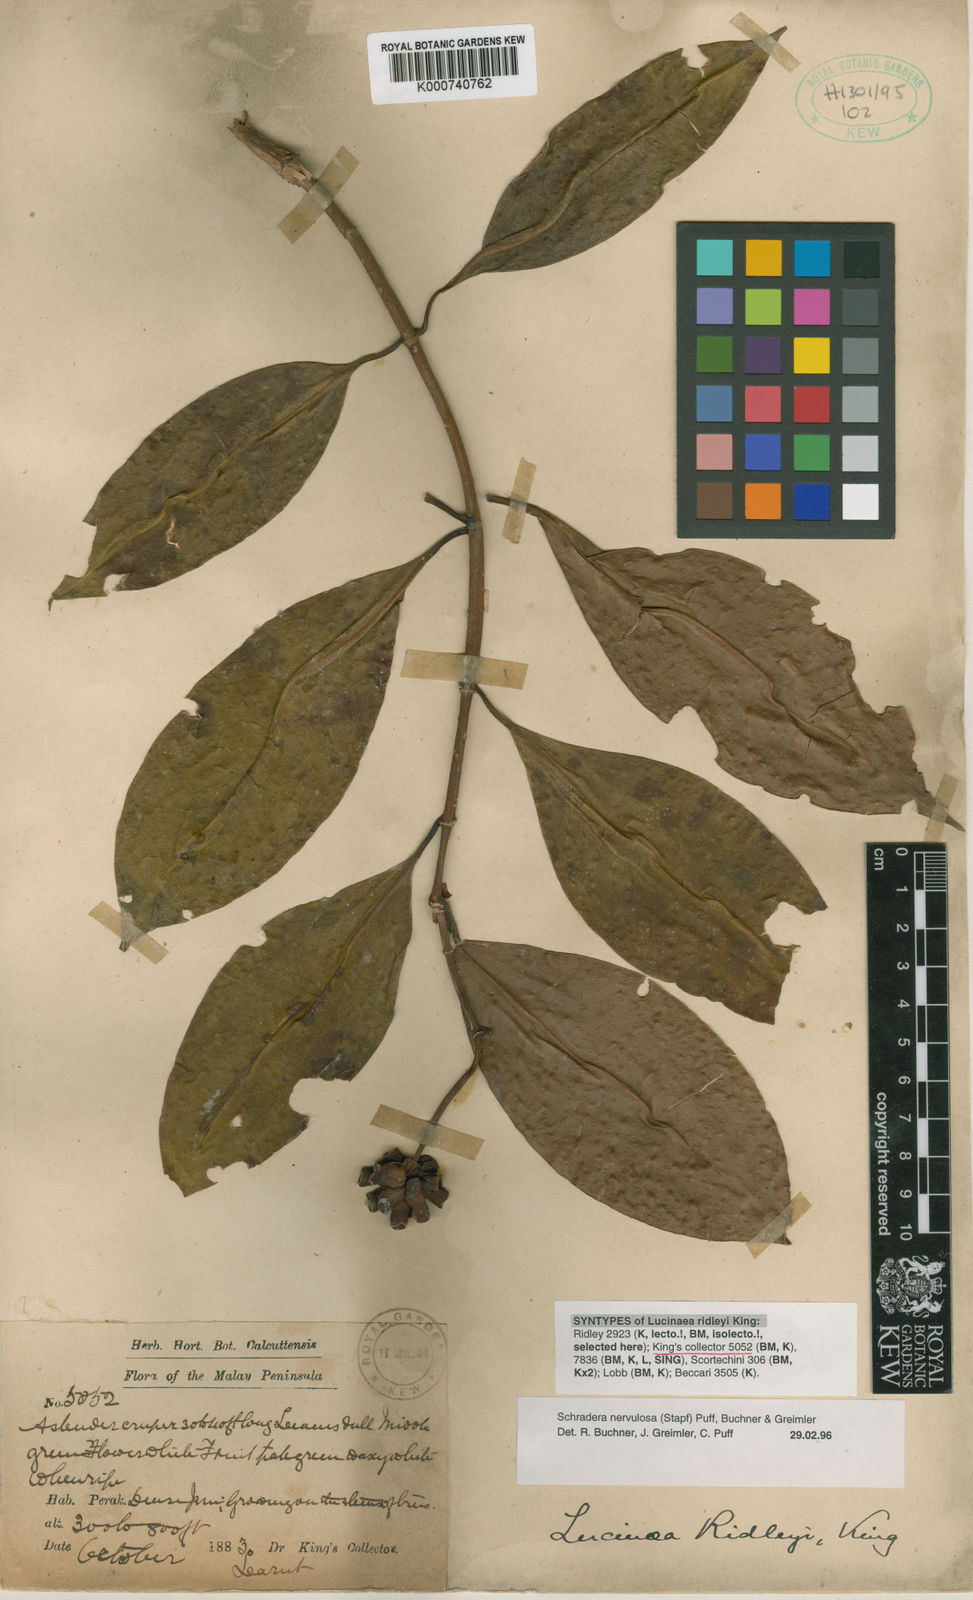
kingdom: Plantae
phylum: Tracheophyta
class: Magnoliopsida
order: Gentianales
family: Rubiaceae
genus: Schradera
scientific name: Schradera nervulosa
